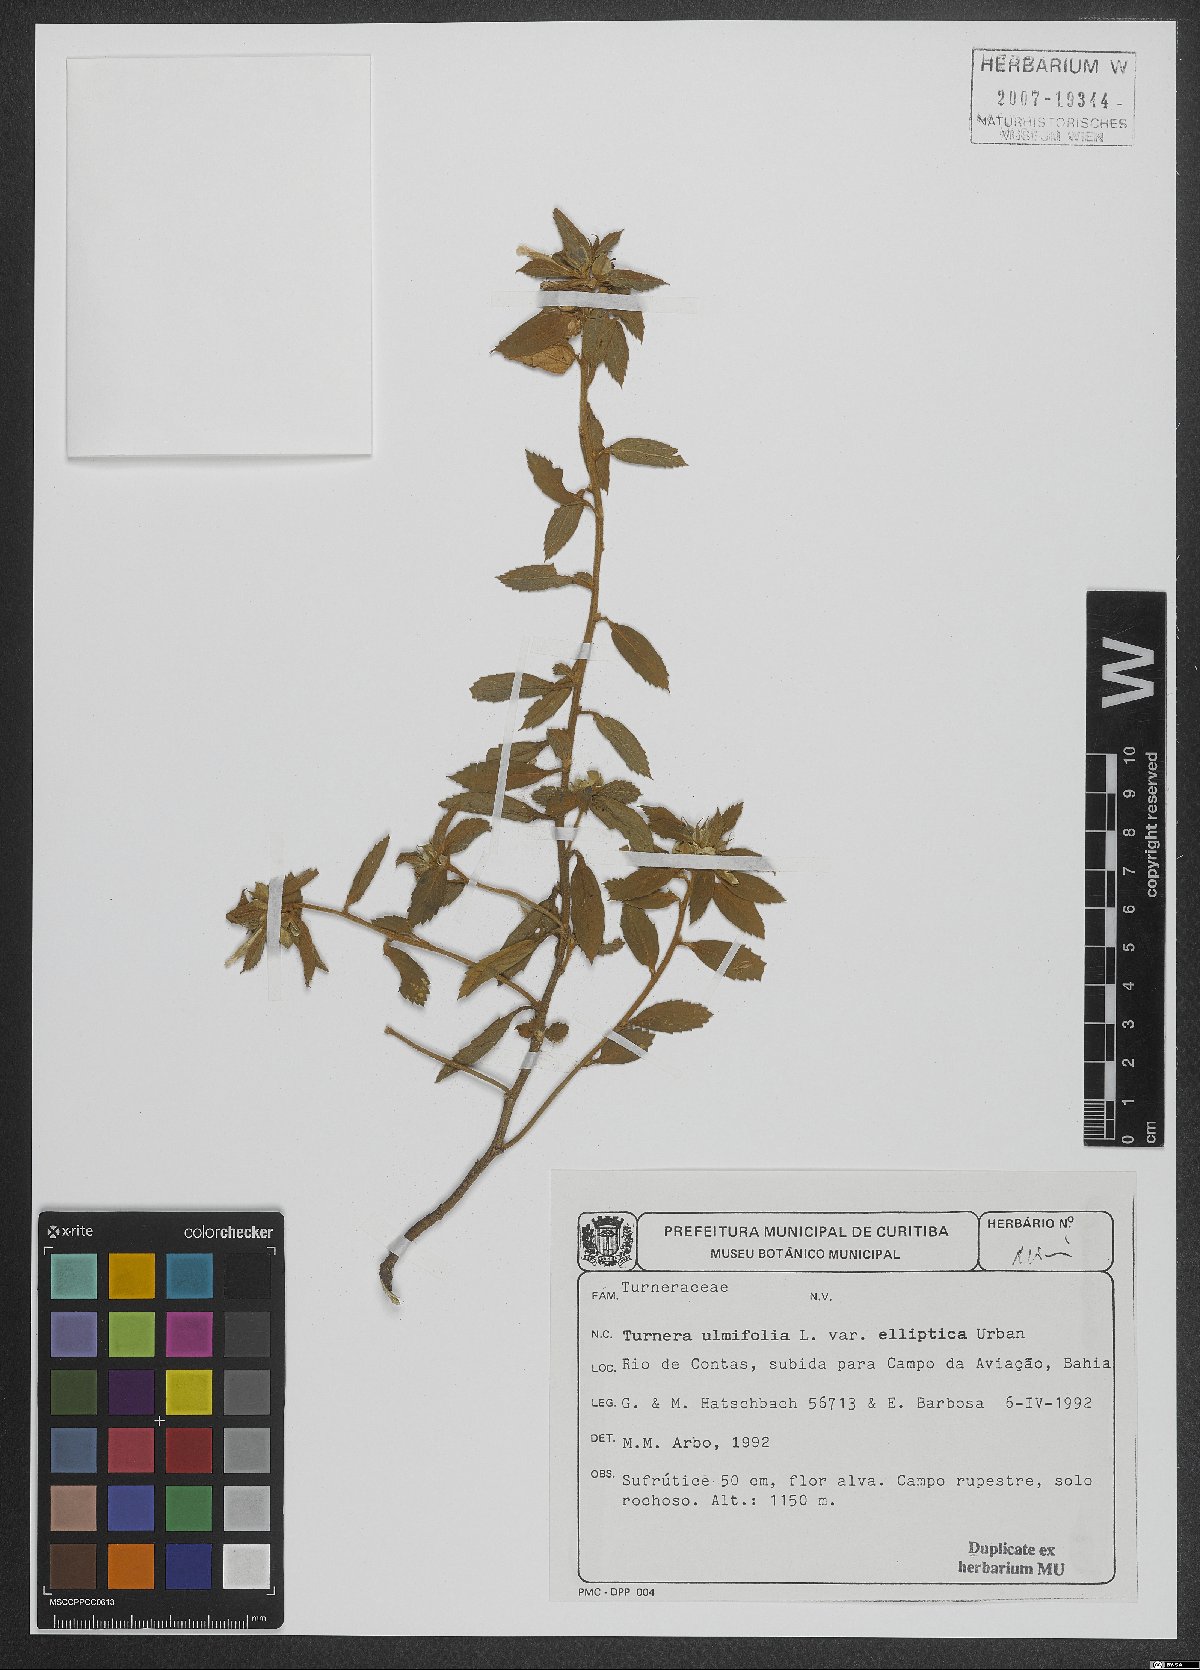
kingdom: Plantae
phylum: Tracheophyta
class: Magnoliopsida
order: Malpighiales
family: Turneraceae
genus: Turnera
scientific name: Turnera candida
